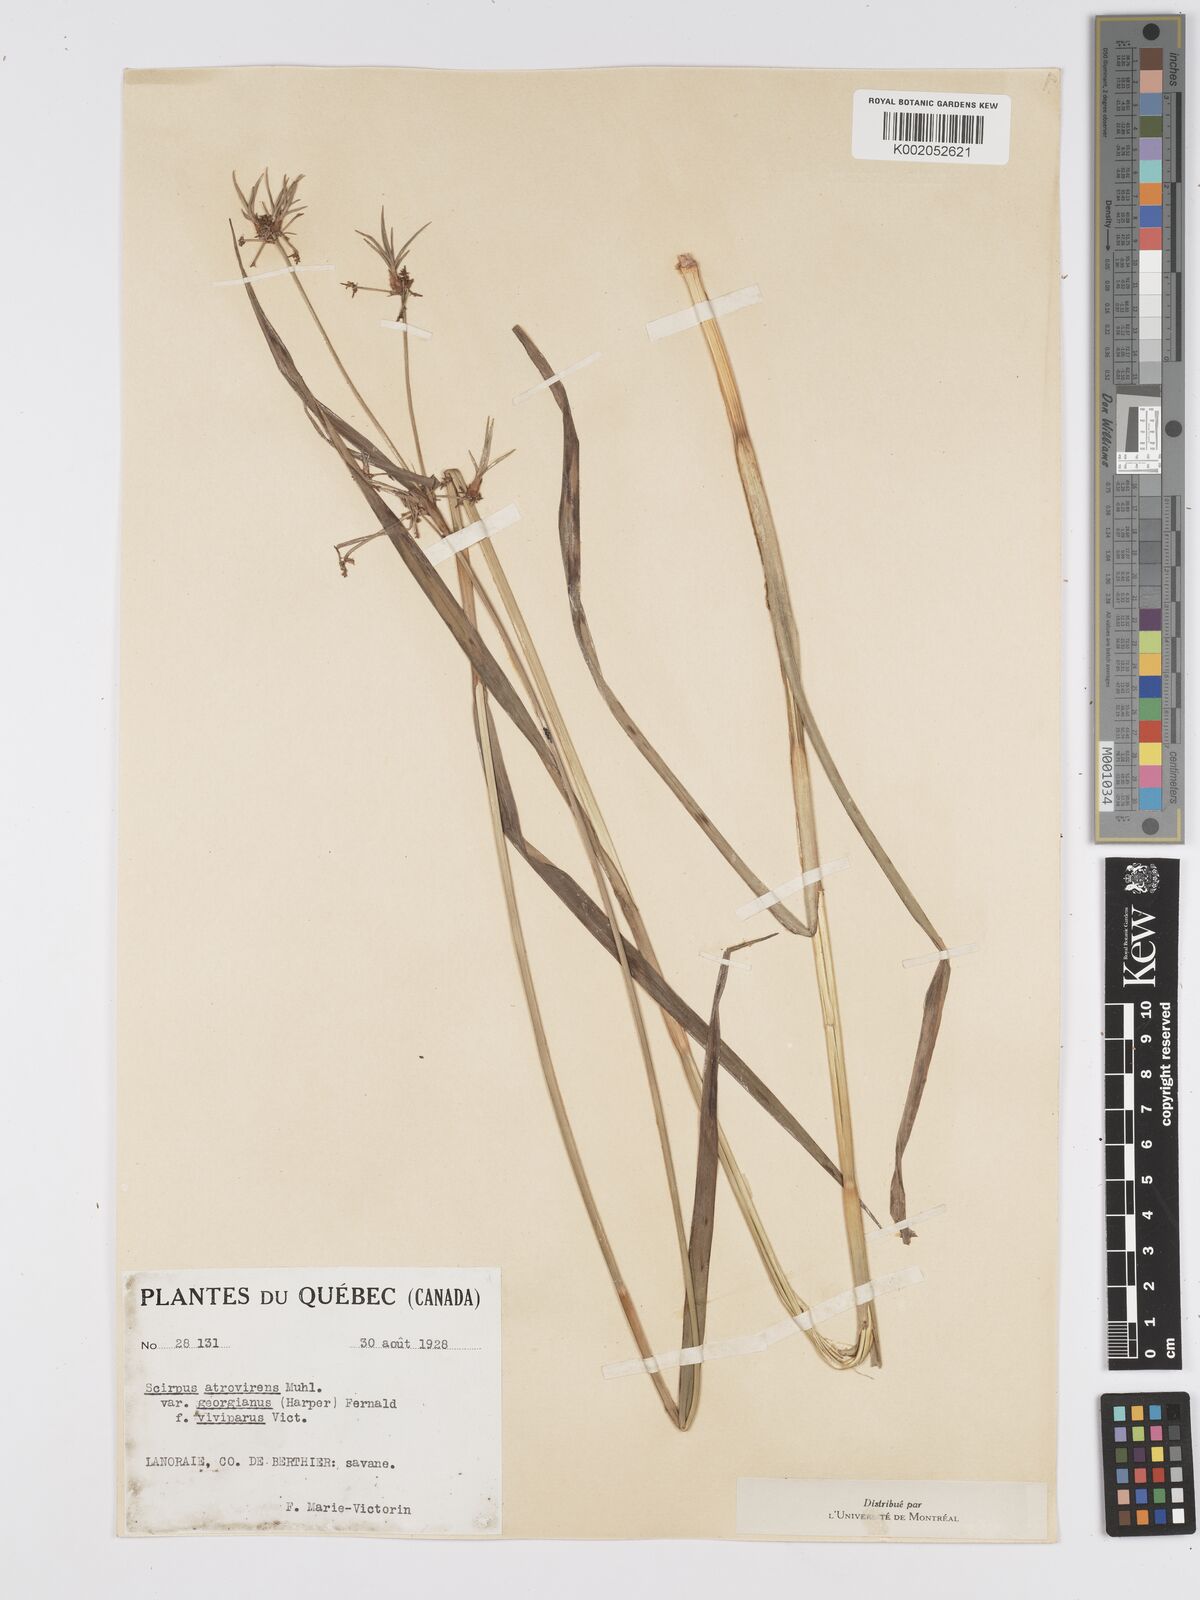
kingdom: Plantae
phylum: Tracheophyta
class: Liliopsida
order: Poales
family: Cyperaceae
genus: Scirpus
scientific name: Scirpus atrovirens
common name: Black bulrush
